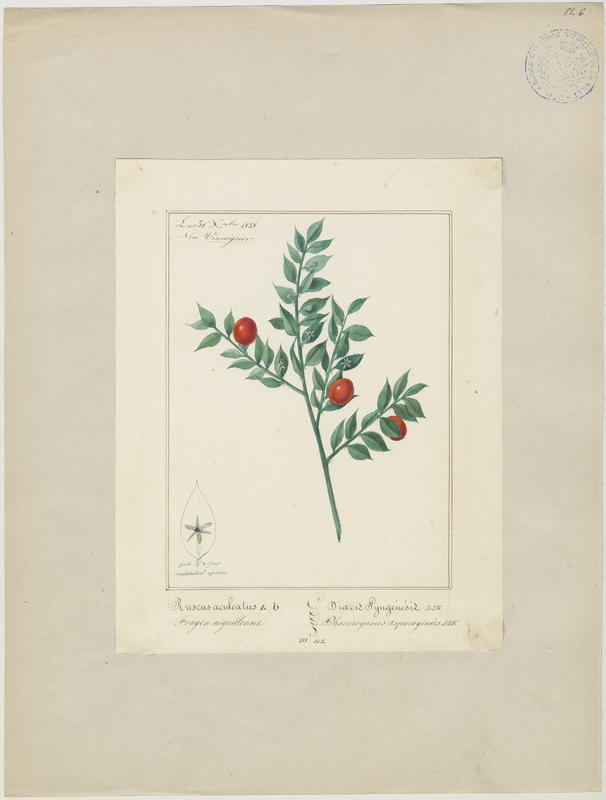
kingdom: Plantae
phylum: Tracheophyta
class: Liliopsida
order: Asparagales
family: Asparagaceae
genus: Ruscus
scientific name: Ruscus aculeatus
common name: Butcher's-broom
